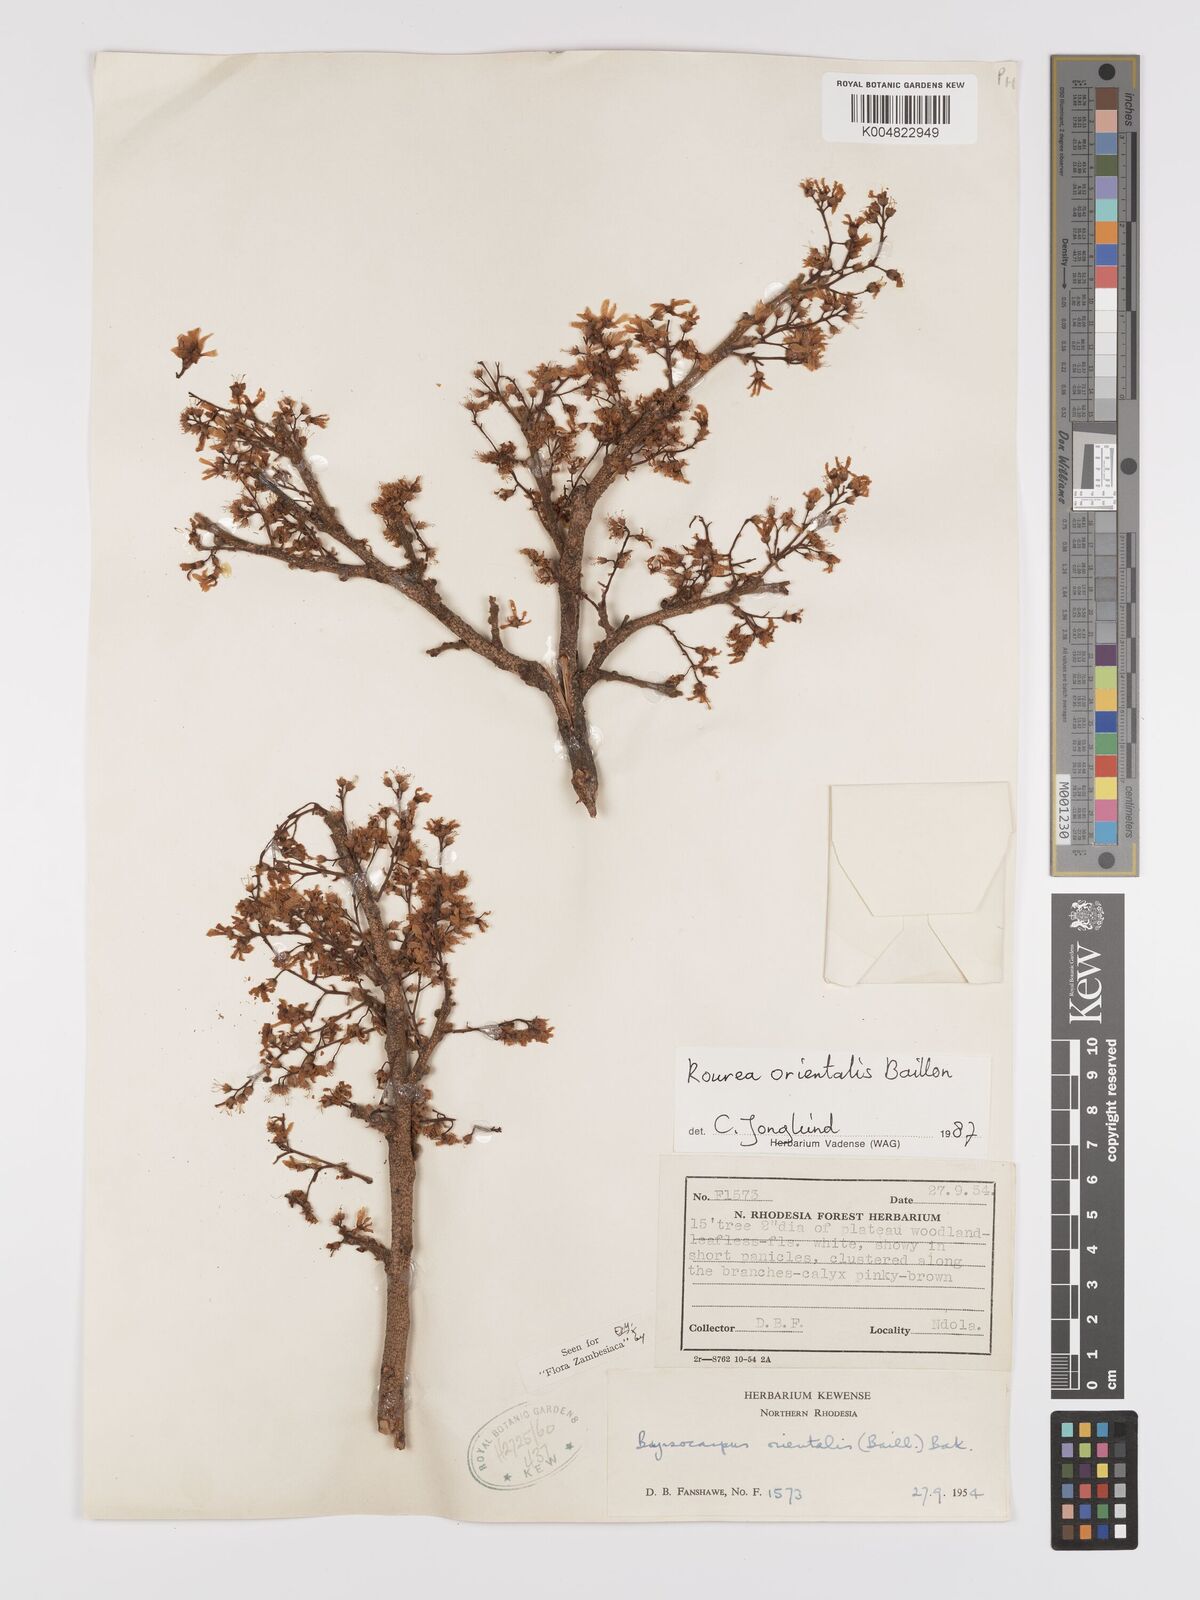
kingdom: Plantae
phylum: Tracheophyta
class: Magnoliopsida
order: Oxalidales
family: Connaraceae
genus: Rourea
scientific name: Rourea orientalis
